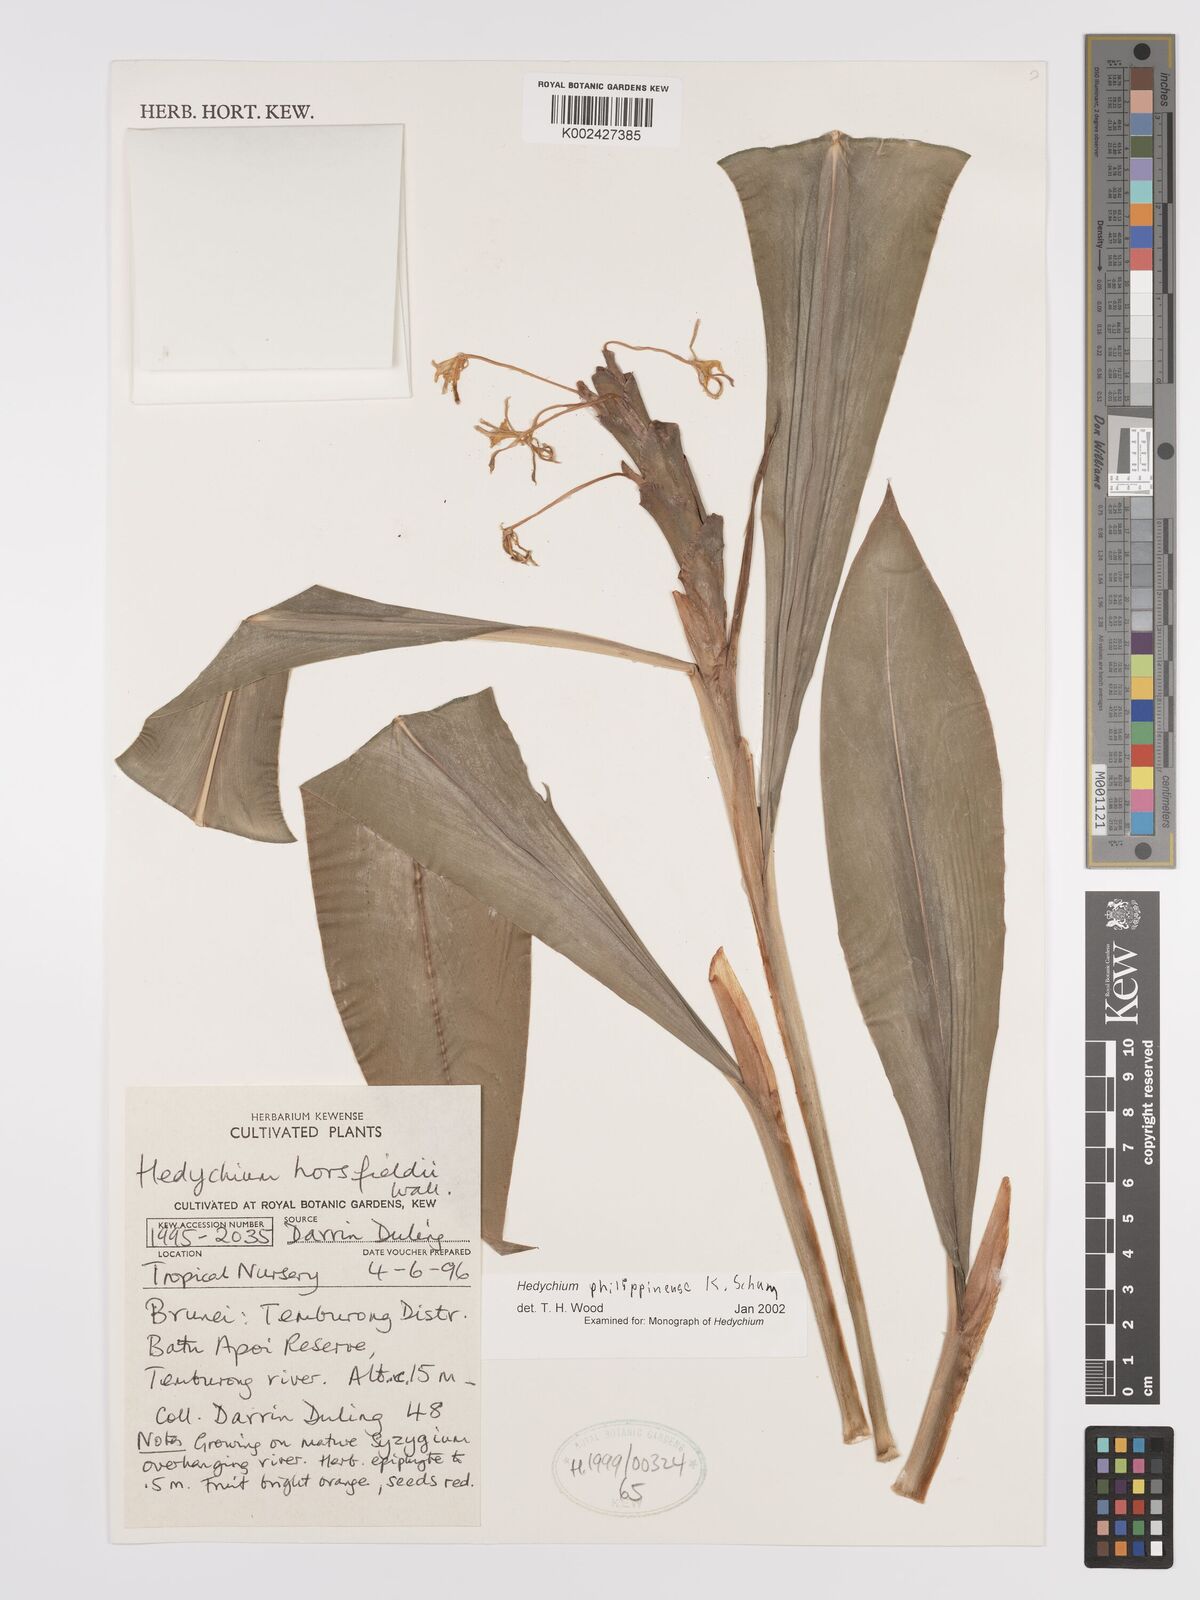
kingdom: Plantae
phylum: Tracheophyta
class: Liliopsida
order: Zingiberales
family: Zingiberaceae
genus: Hedychium
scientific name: Hedychium philippinense
